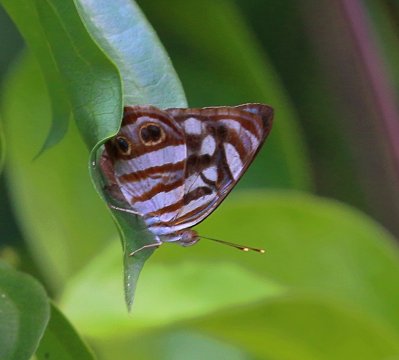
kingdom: Animalia
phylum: Arthropoda
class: Insecta
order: Lepidoptera
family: Nymphalidae
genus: Dynamine
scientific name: Dynamine mylitta
